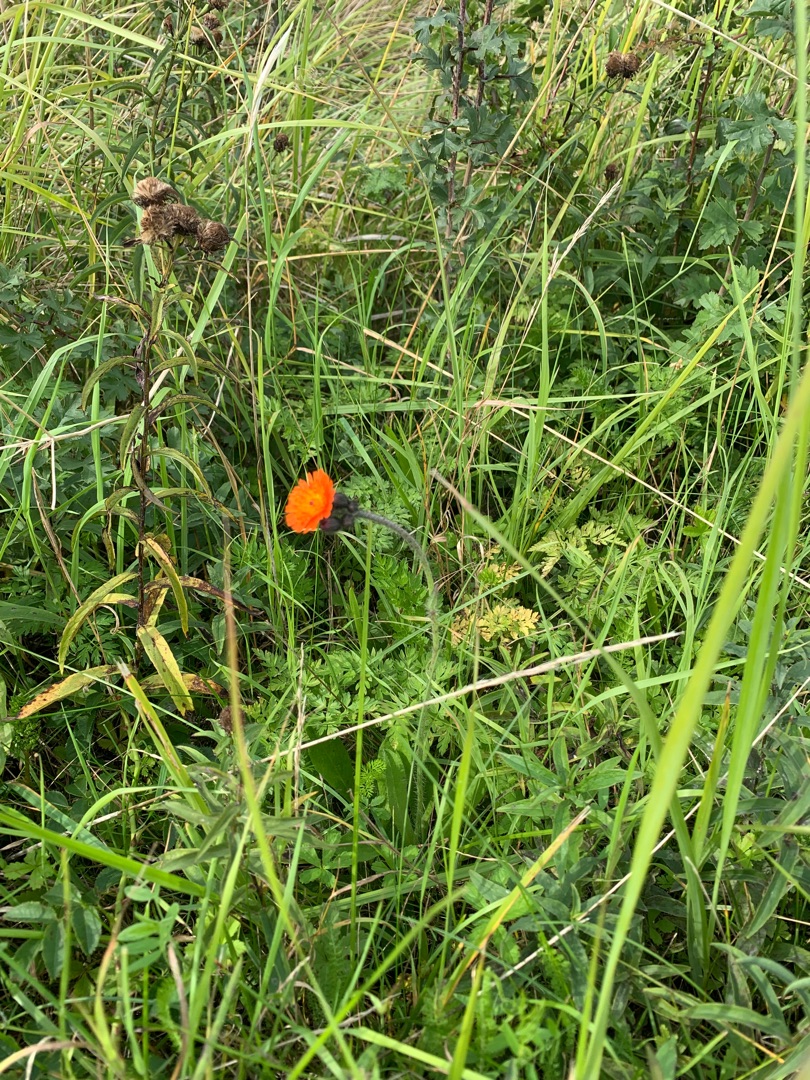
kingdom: Plantae
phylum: Tracheophyta
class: Magnoliopsida
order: Asterales
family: Asteraceae
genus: Pilosella
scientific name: Pilosella aurantiaca
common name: Pomerans-høgeurt
